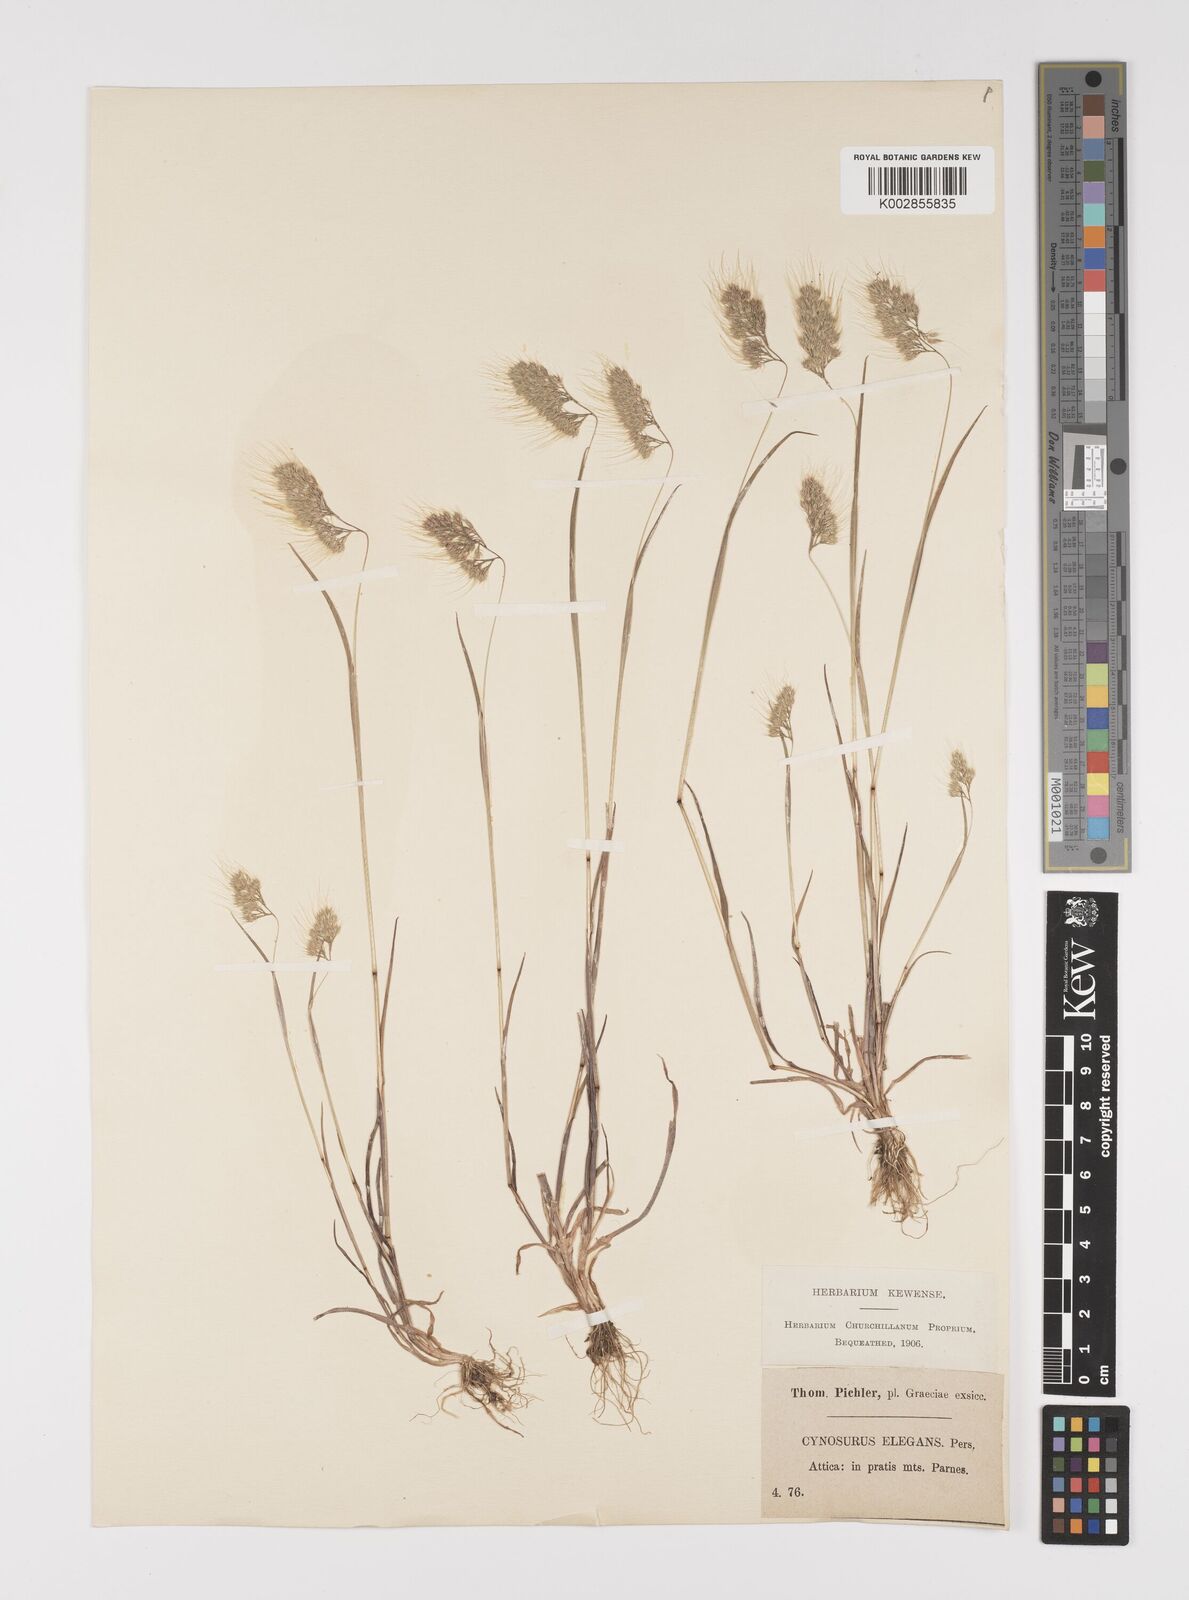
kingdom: Plantae
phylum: Tracheophyta
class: Liliopsida
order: Poales
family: Poaceae
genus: Cynosurus
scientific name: Cynosurus elegans
